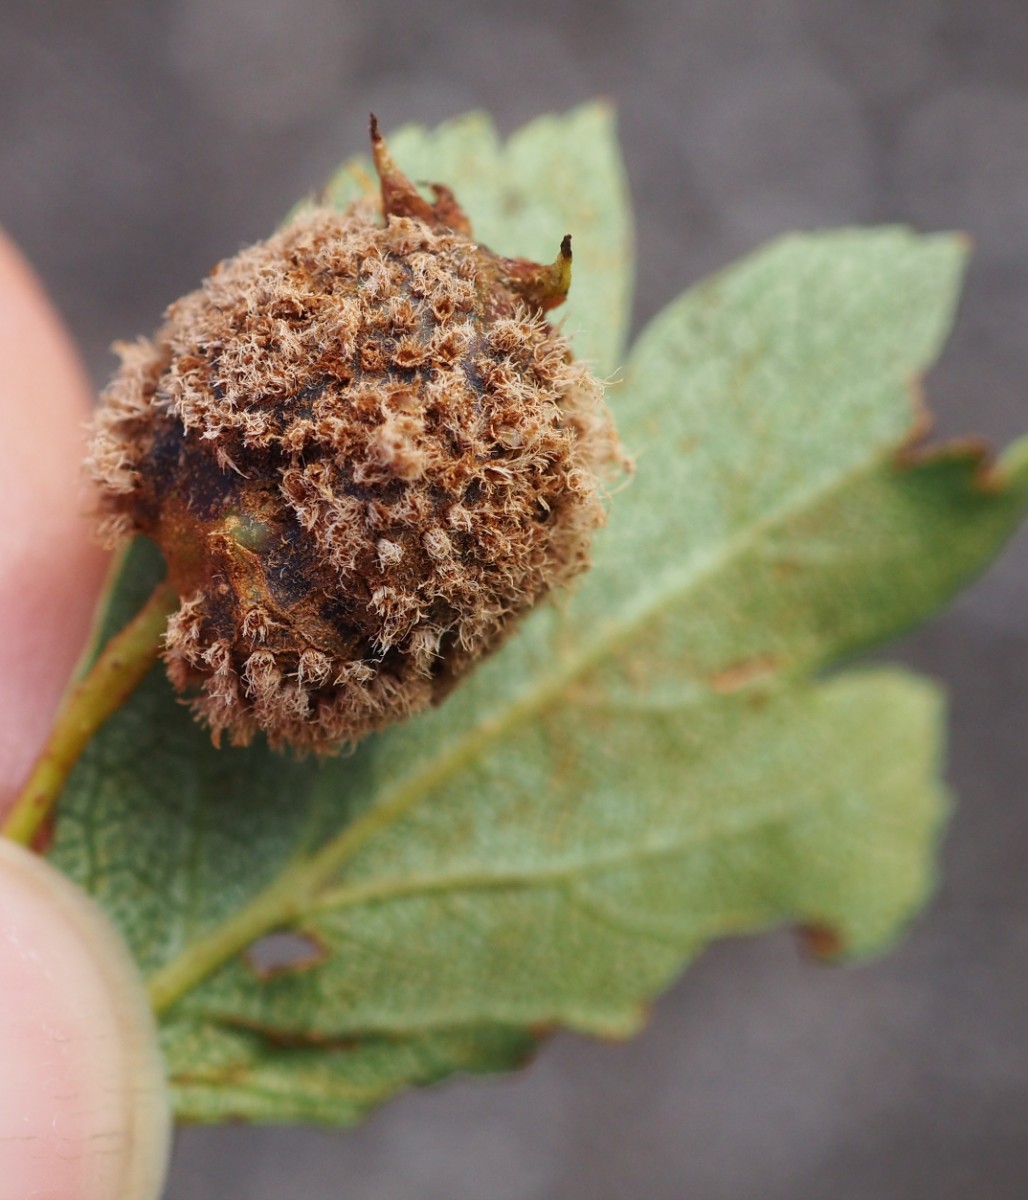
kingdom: Fungi
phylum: Basidiomycota
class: Pucciniomycetes
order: Pucciniales
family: Gymnosporangiaceae
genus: Gymnosporangium
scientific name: Gymnosporangium clavariiforme
